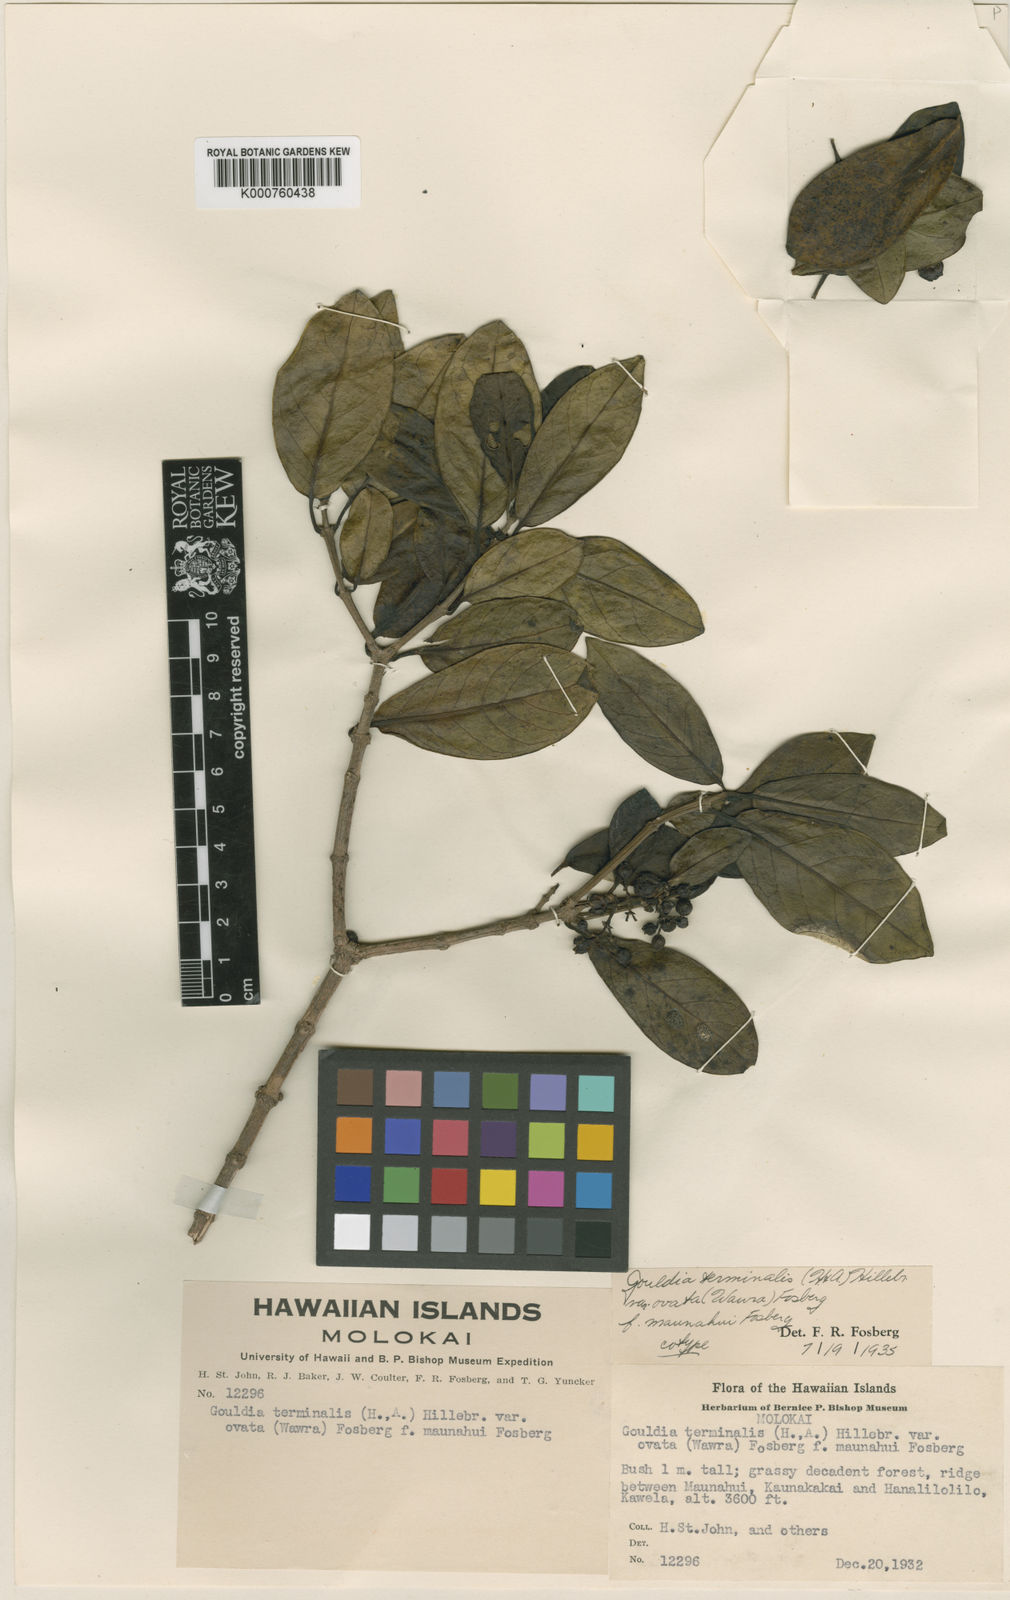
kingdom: Plantae
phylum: Tracheophyta
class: Magnoliopsida
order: Gentianales
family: Rubiaceae
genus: Kadua
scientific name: Kadua affinis
